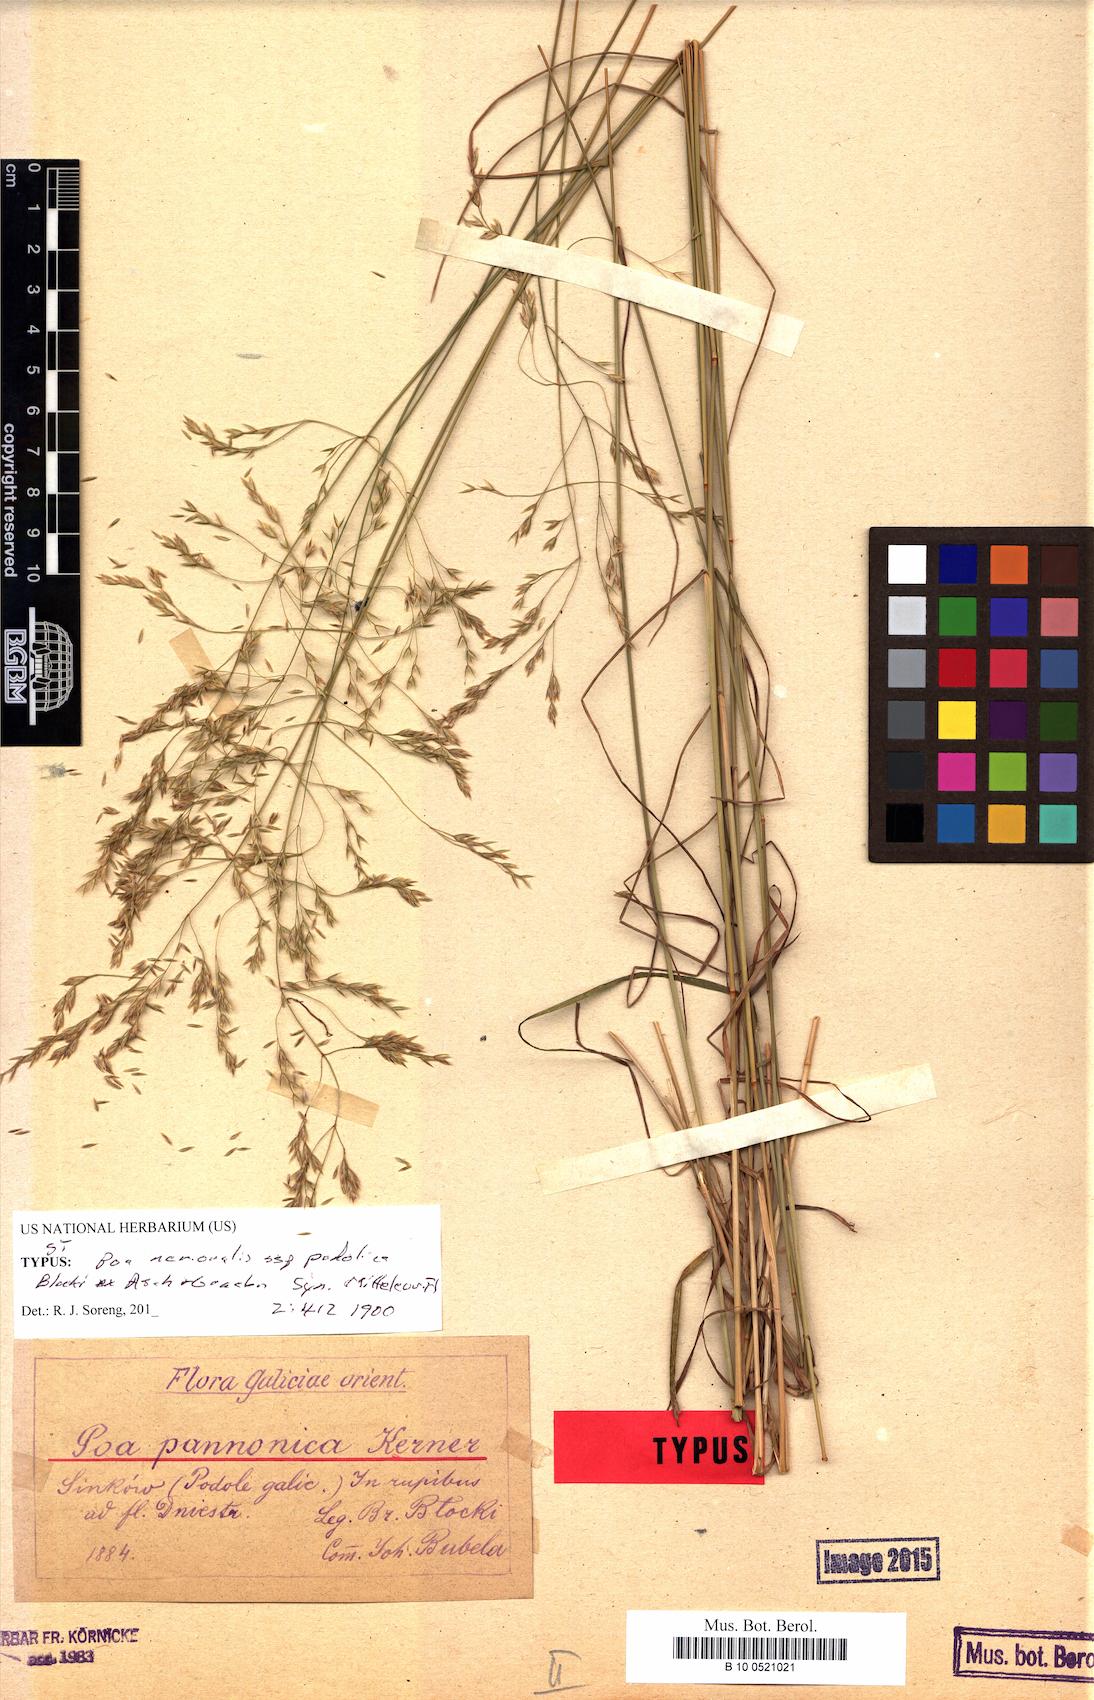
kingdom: Plantae
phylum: Tracheophyta
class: Liliopsida
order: Poales
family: Poaceae
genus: Poa
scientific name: Poa versicolor
